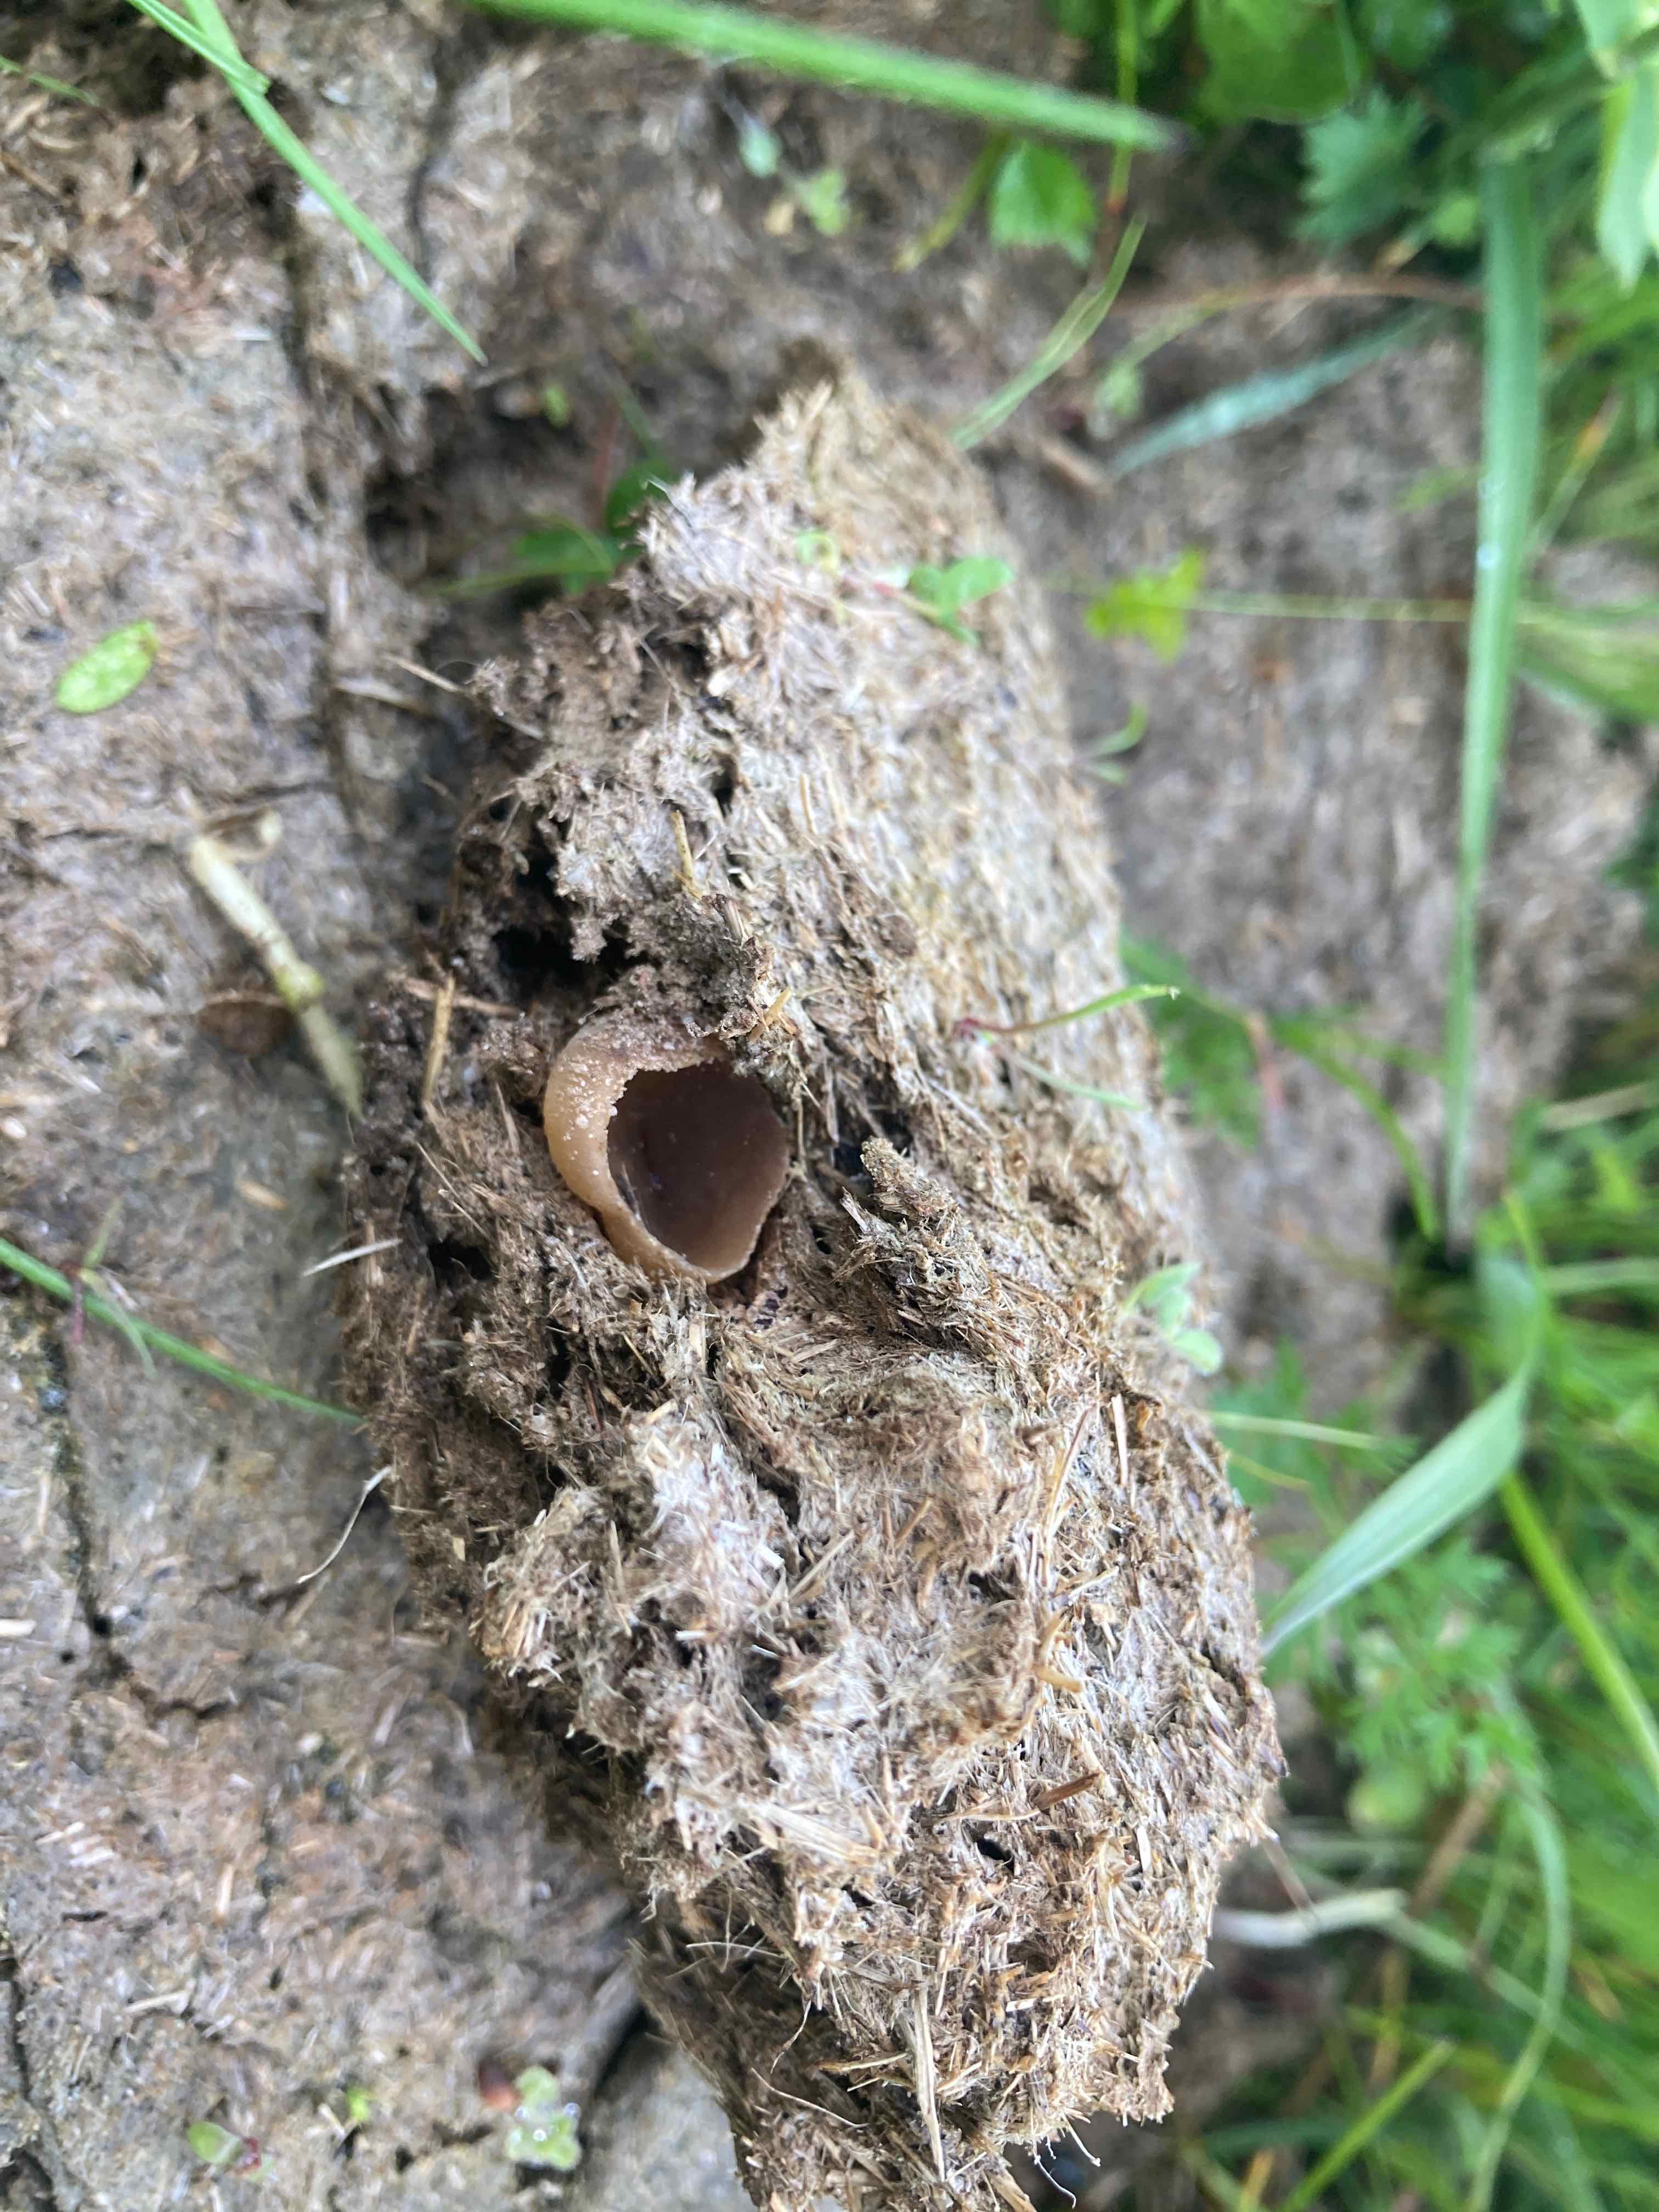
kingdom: Fungi
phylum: Ascomycota
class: Pezizomycetes
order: Pezizales
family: Pezizaceae
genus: Peziza
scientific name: Peziza fimeti
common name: møg-bægersvamp
